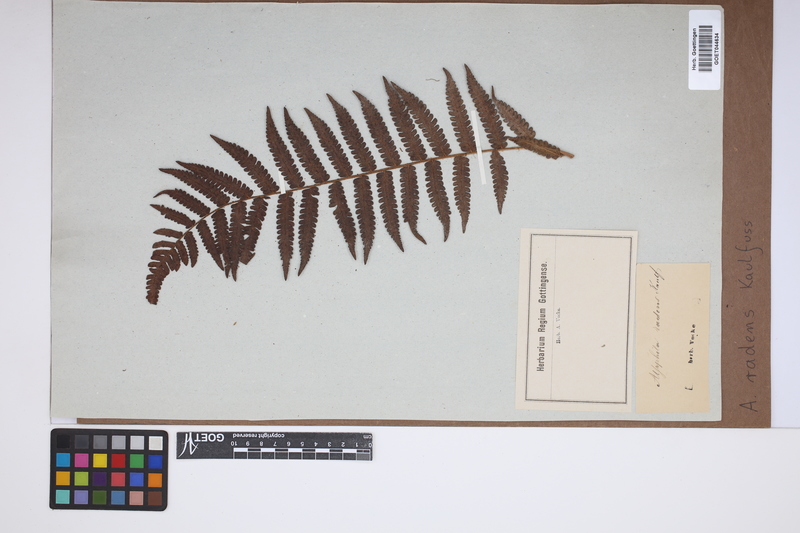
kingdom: Plantae
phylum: Tracheophyta
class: Polypodiopsida
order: Cyatheales
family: Cyatheaceae
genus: Cyathea
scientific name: Cyathea atrovirens
